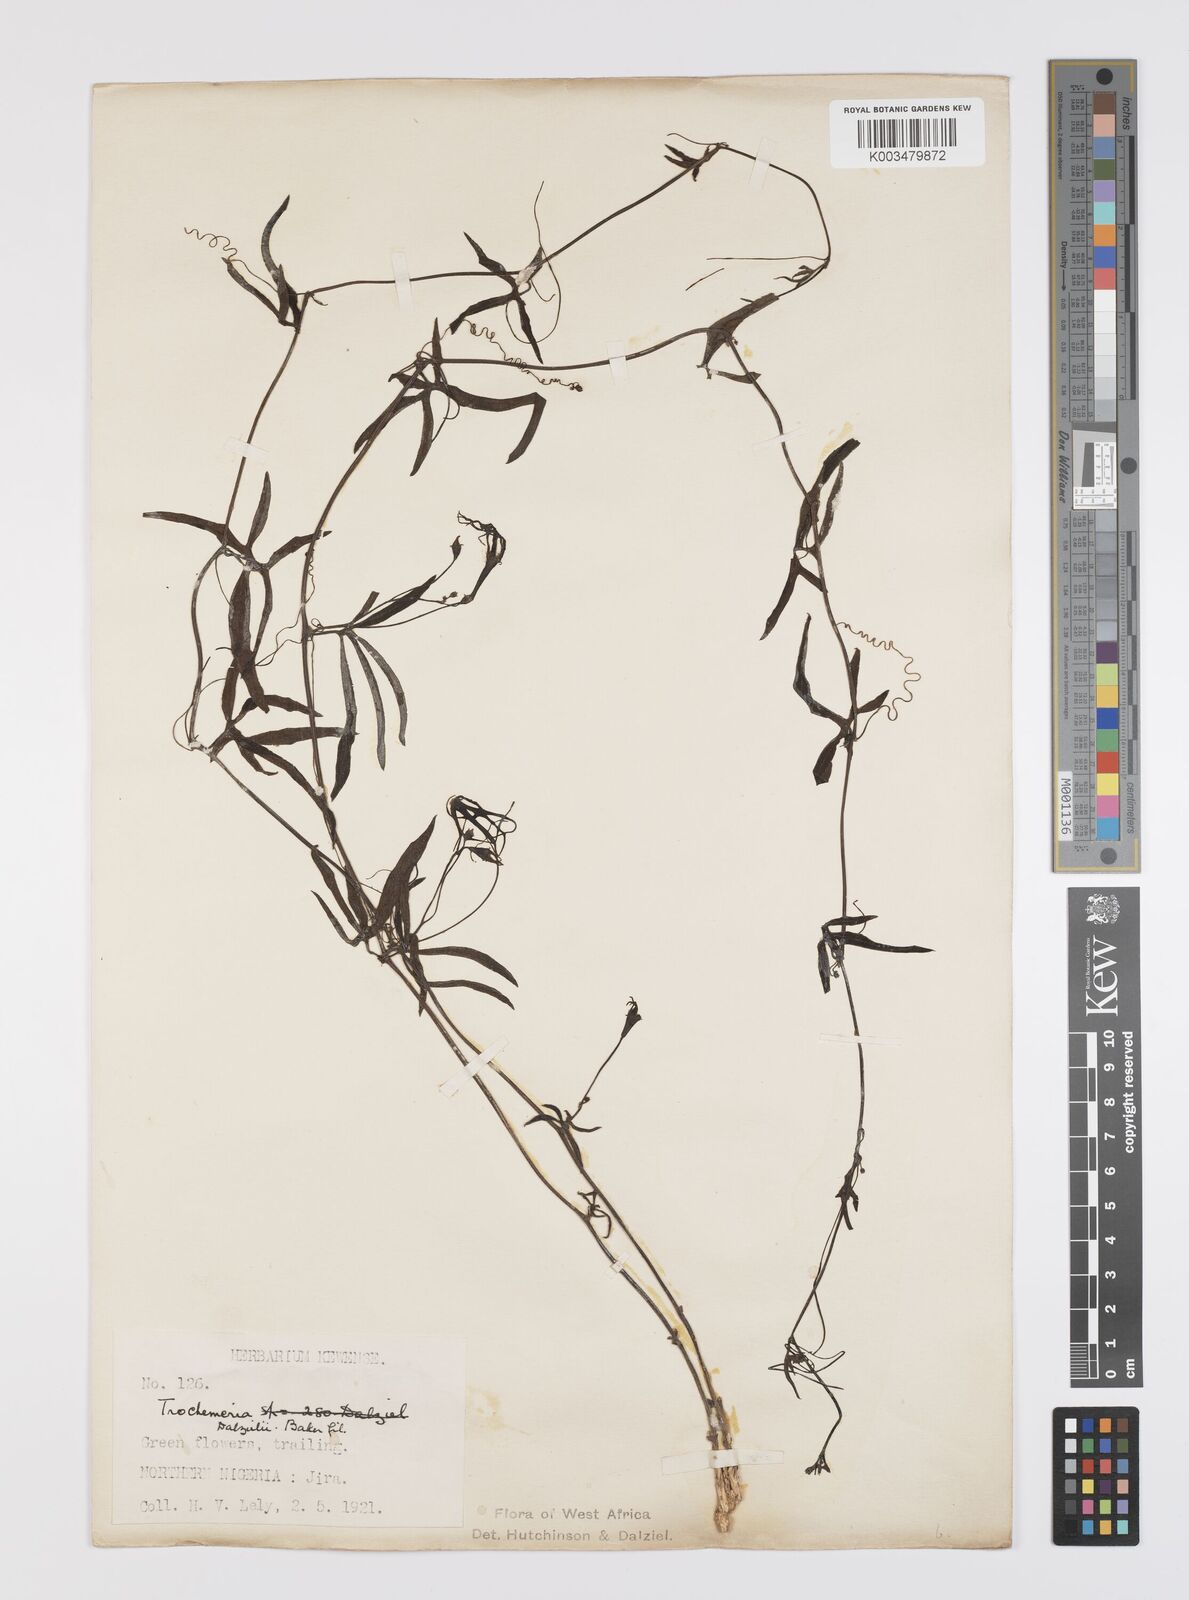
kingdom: Plantae
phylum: Tracheophyta
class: Magnoliopsida
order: Cucurbitales
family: Cucurbitaceae
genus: Trochomeria
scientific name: Trochomeria macrocarpa
